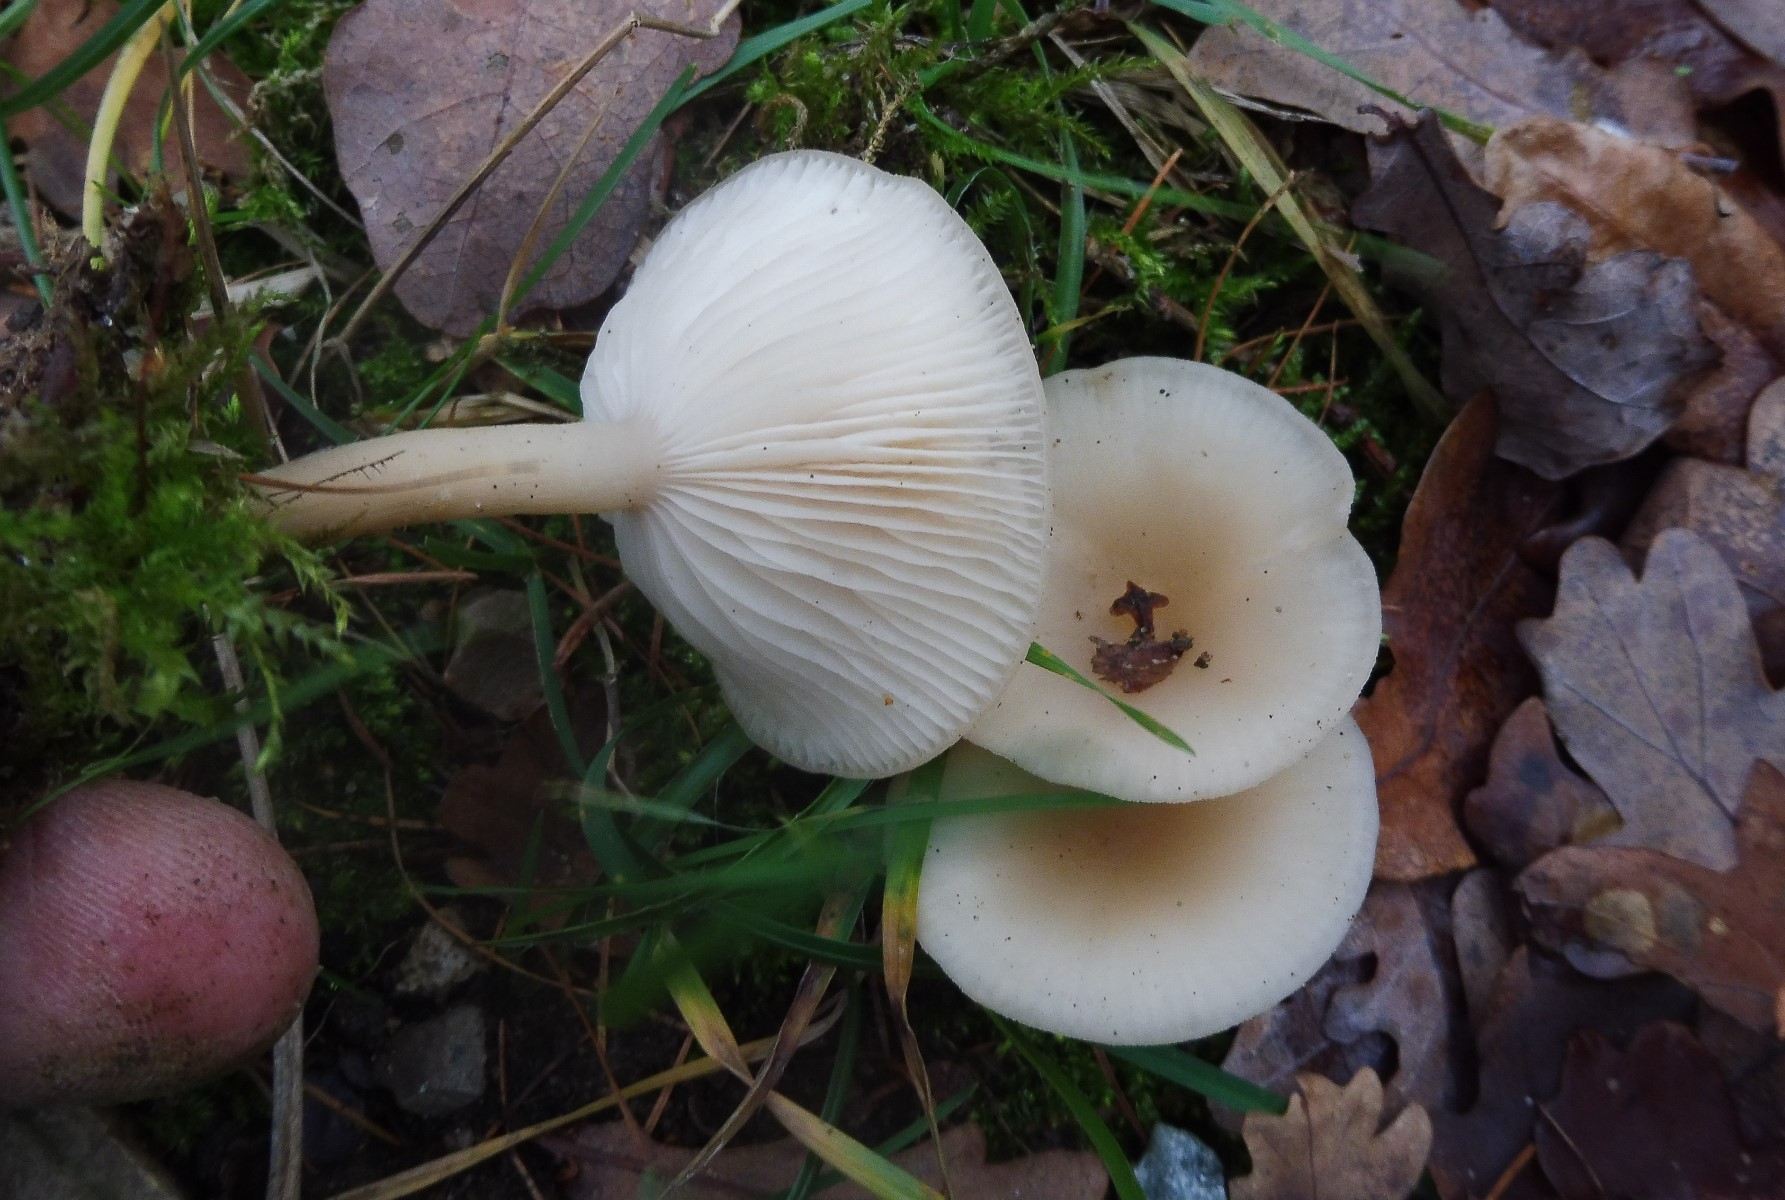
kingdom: Fungi
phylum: Basidiomycota
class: Agaricomycetes
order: Agaricales
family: Tricholomataceae
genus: Clitocybe
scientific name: Clitocybe
